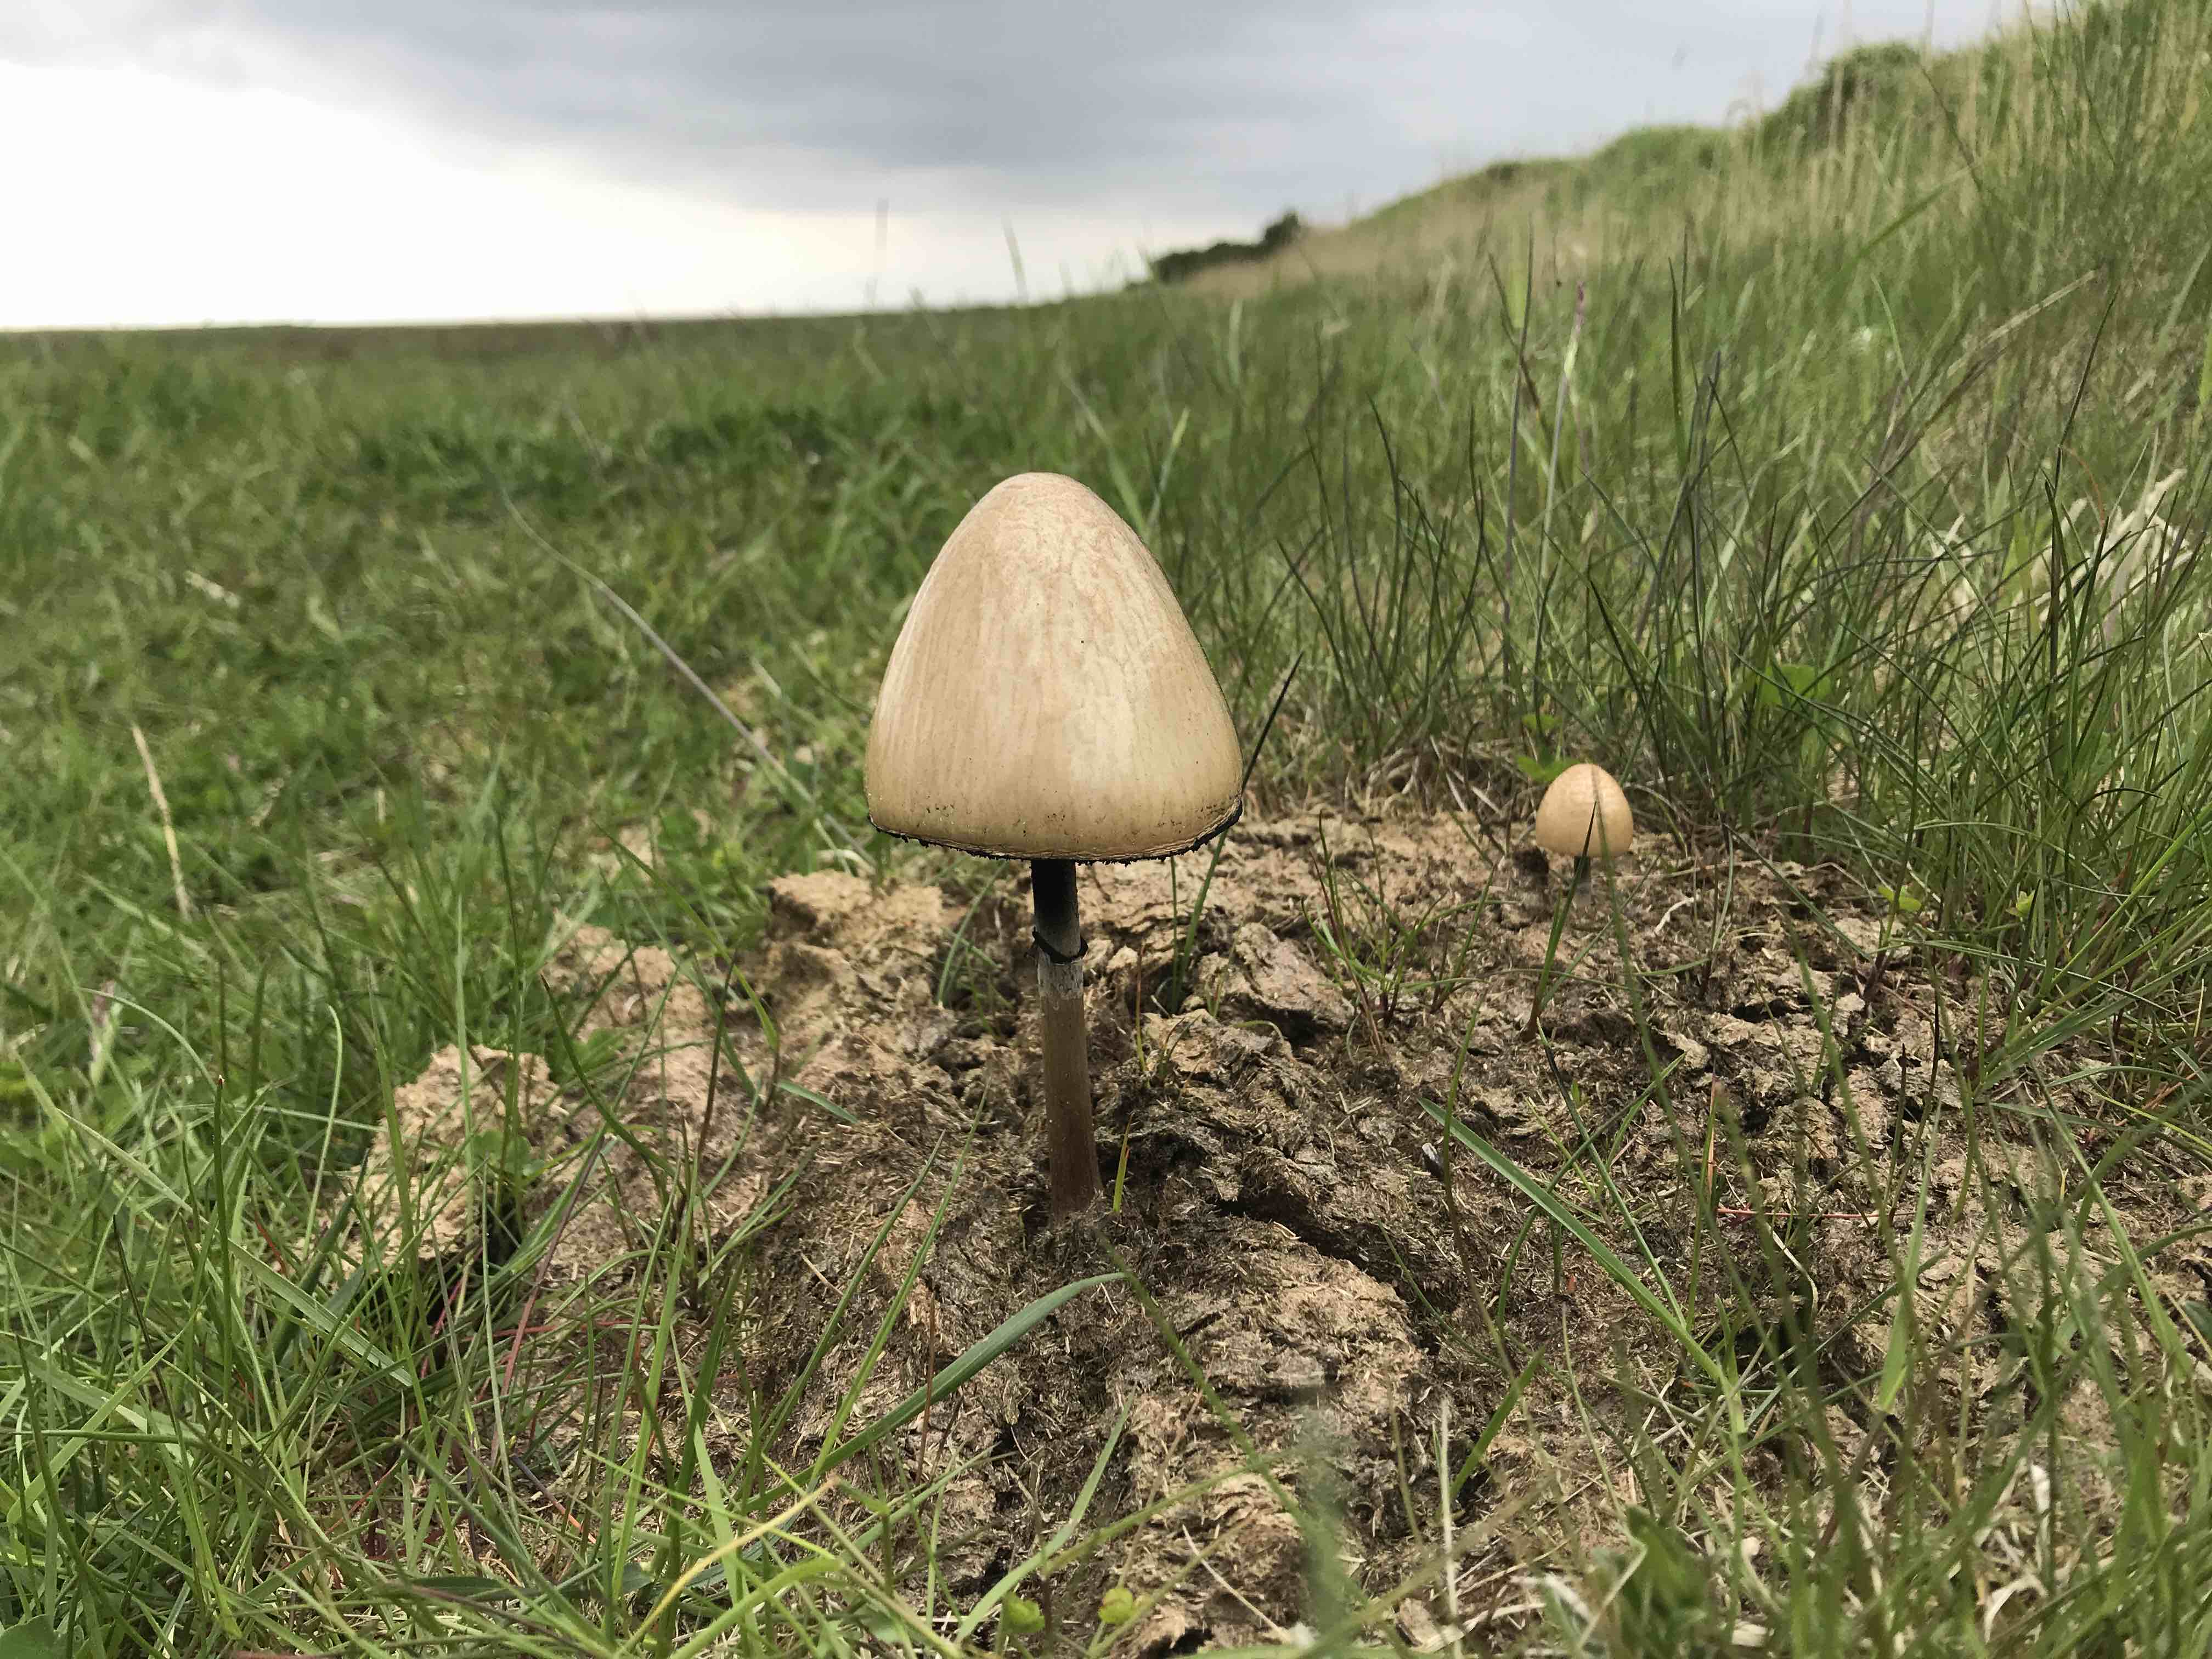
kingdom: Fungi
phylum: Basidiomycota
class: Agaricomycetes
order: Agaricales
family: Bolbitiaceae
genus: Panaeolus
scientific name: Panaeolus semiovatus
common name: ring-glanshat
